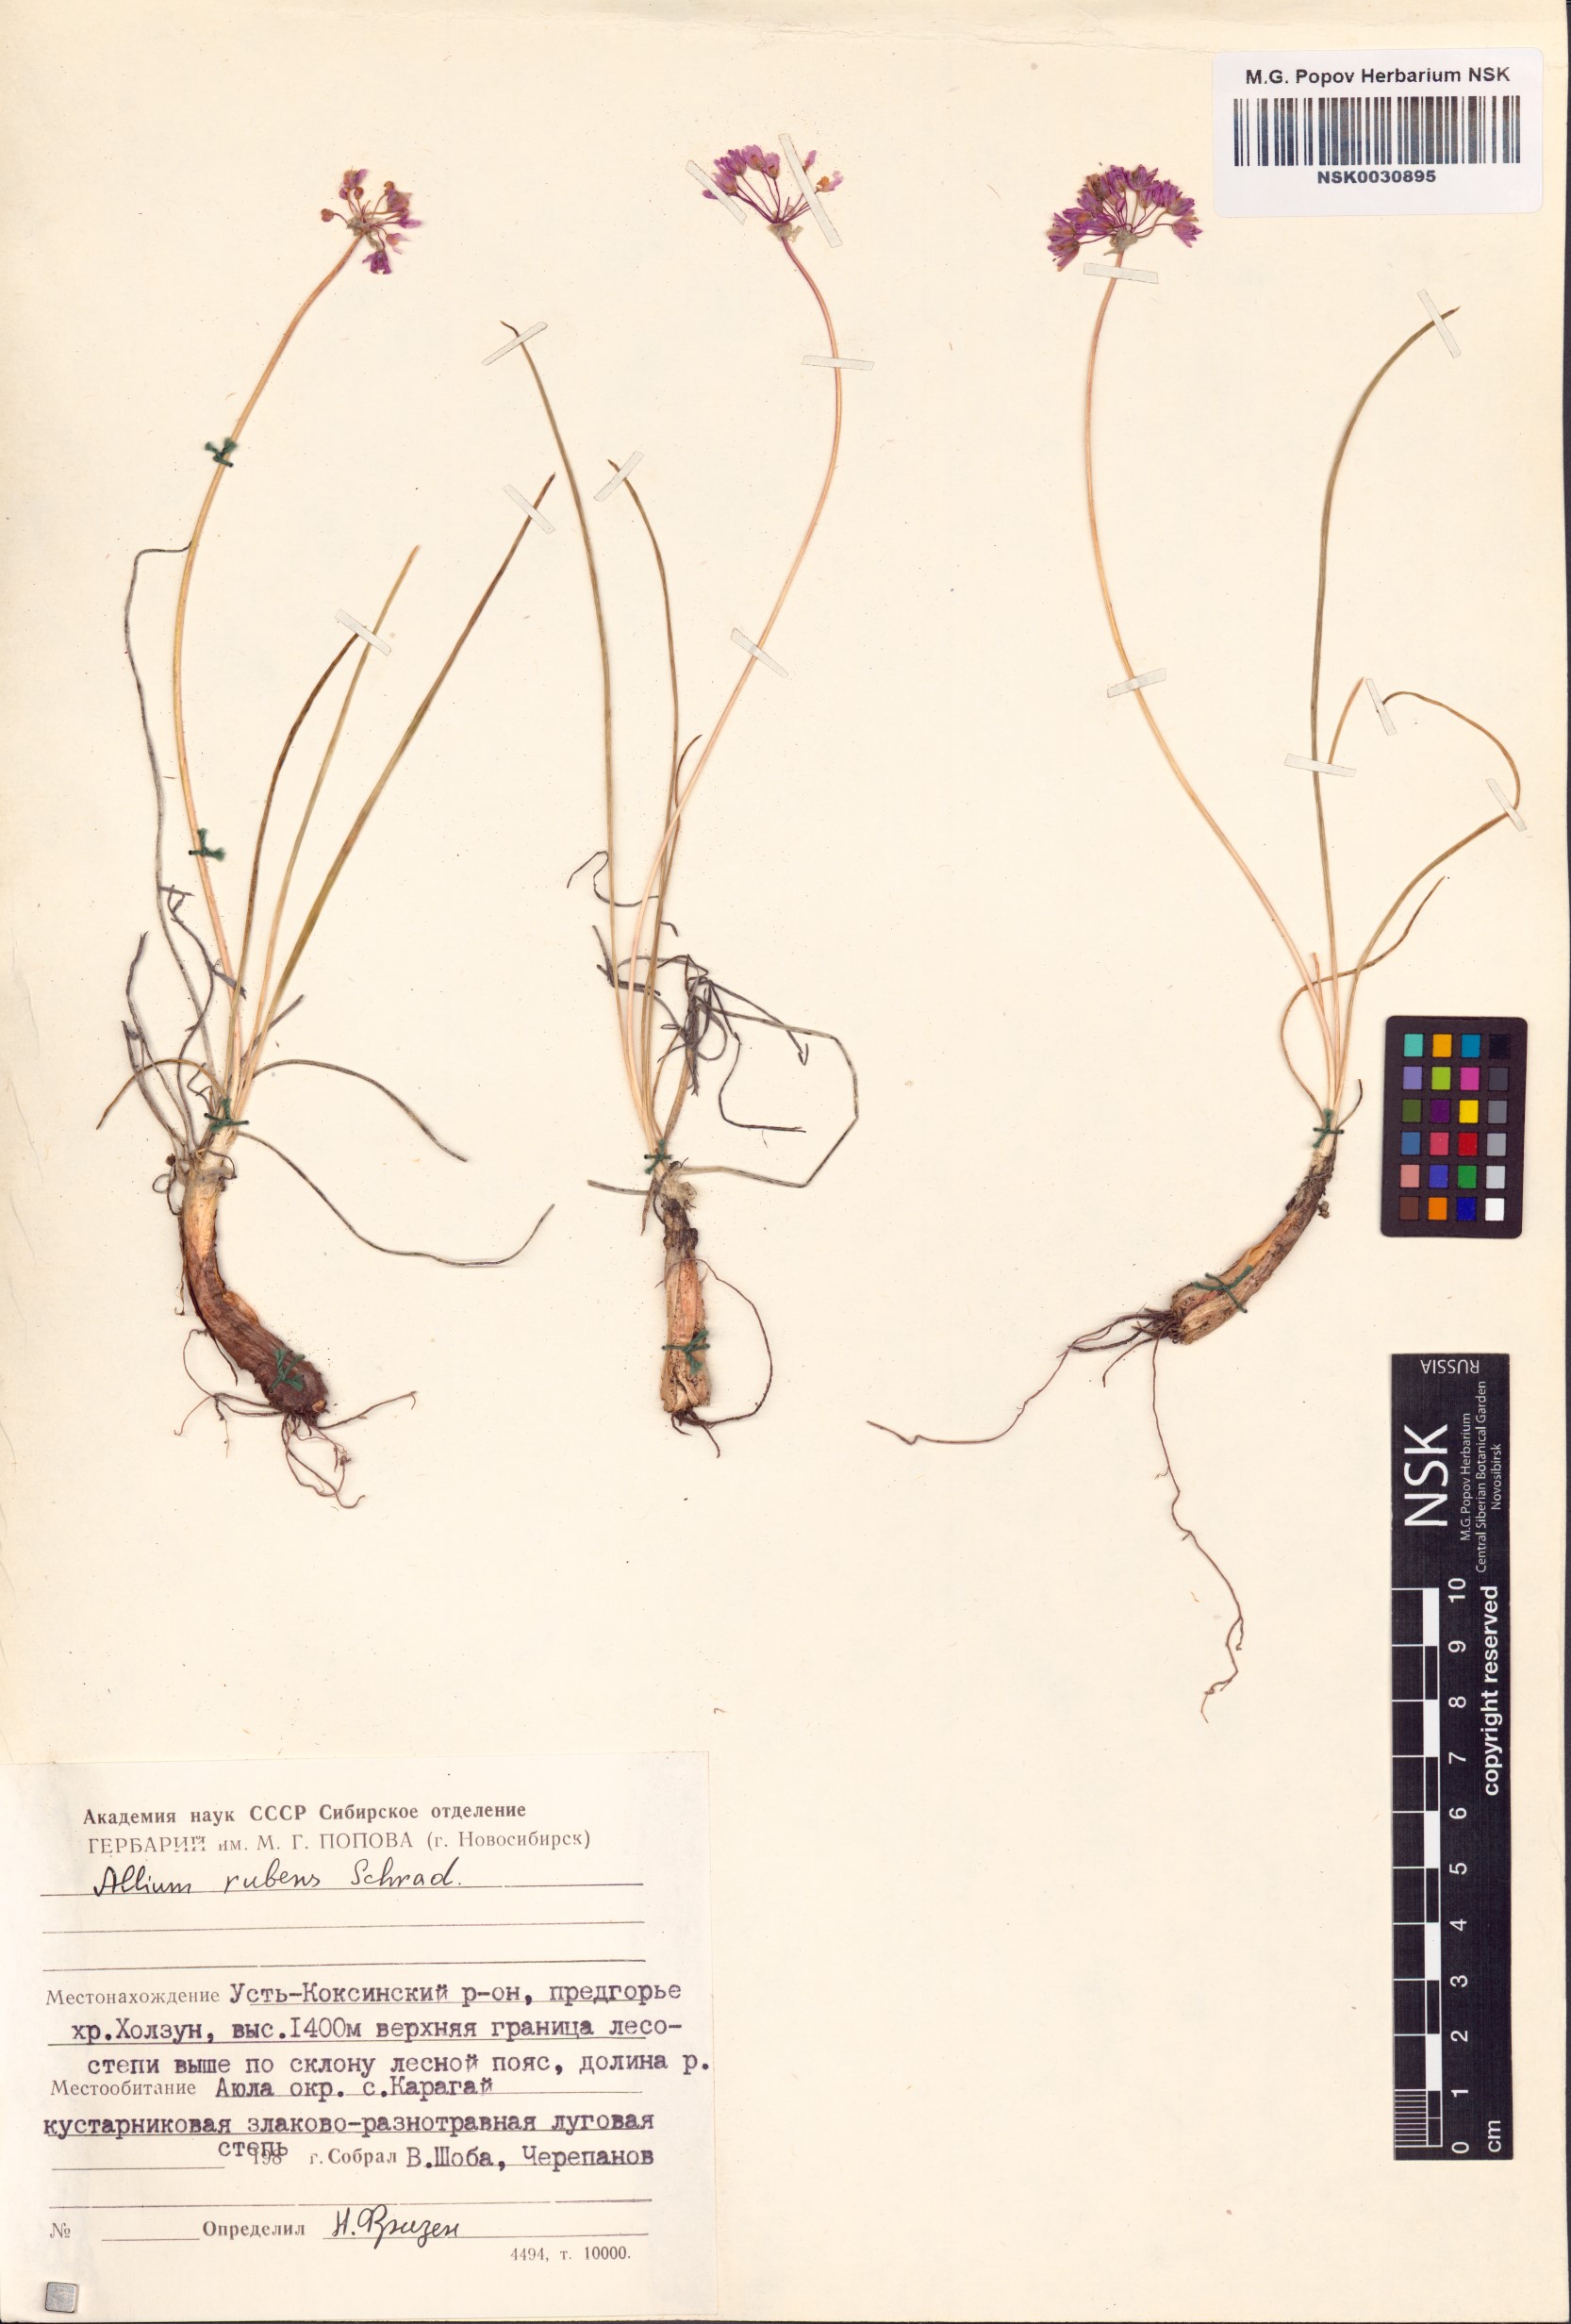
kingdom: Plantae
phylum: Tracheophyta
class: Liliopsida
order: Asparagales
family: Amaryllidaceae
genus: Allium
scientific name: Allium rubens
